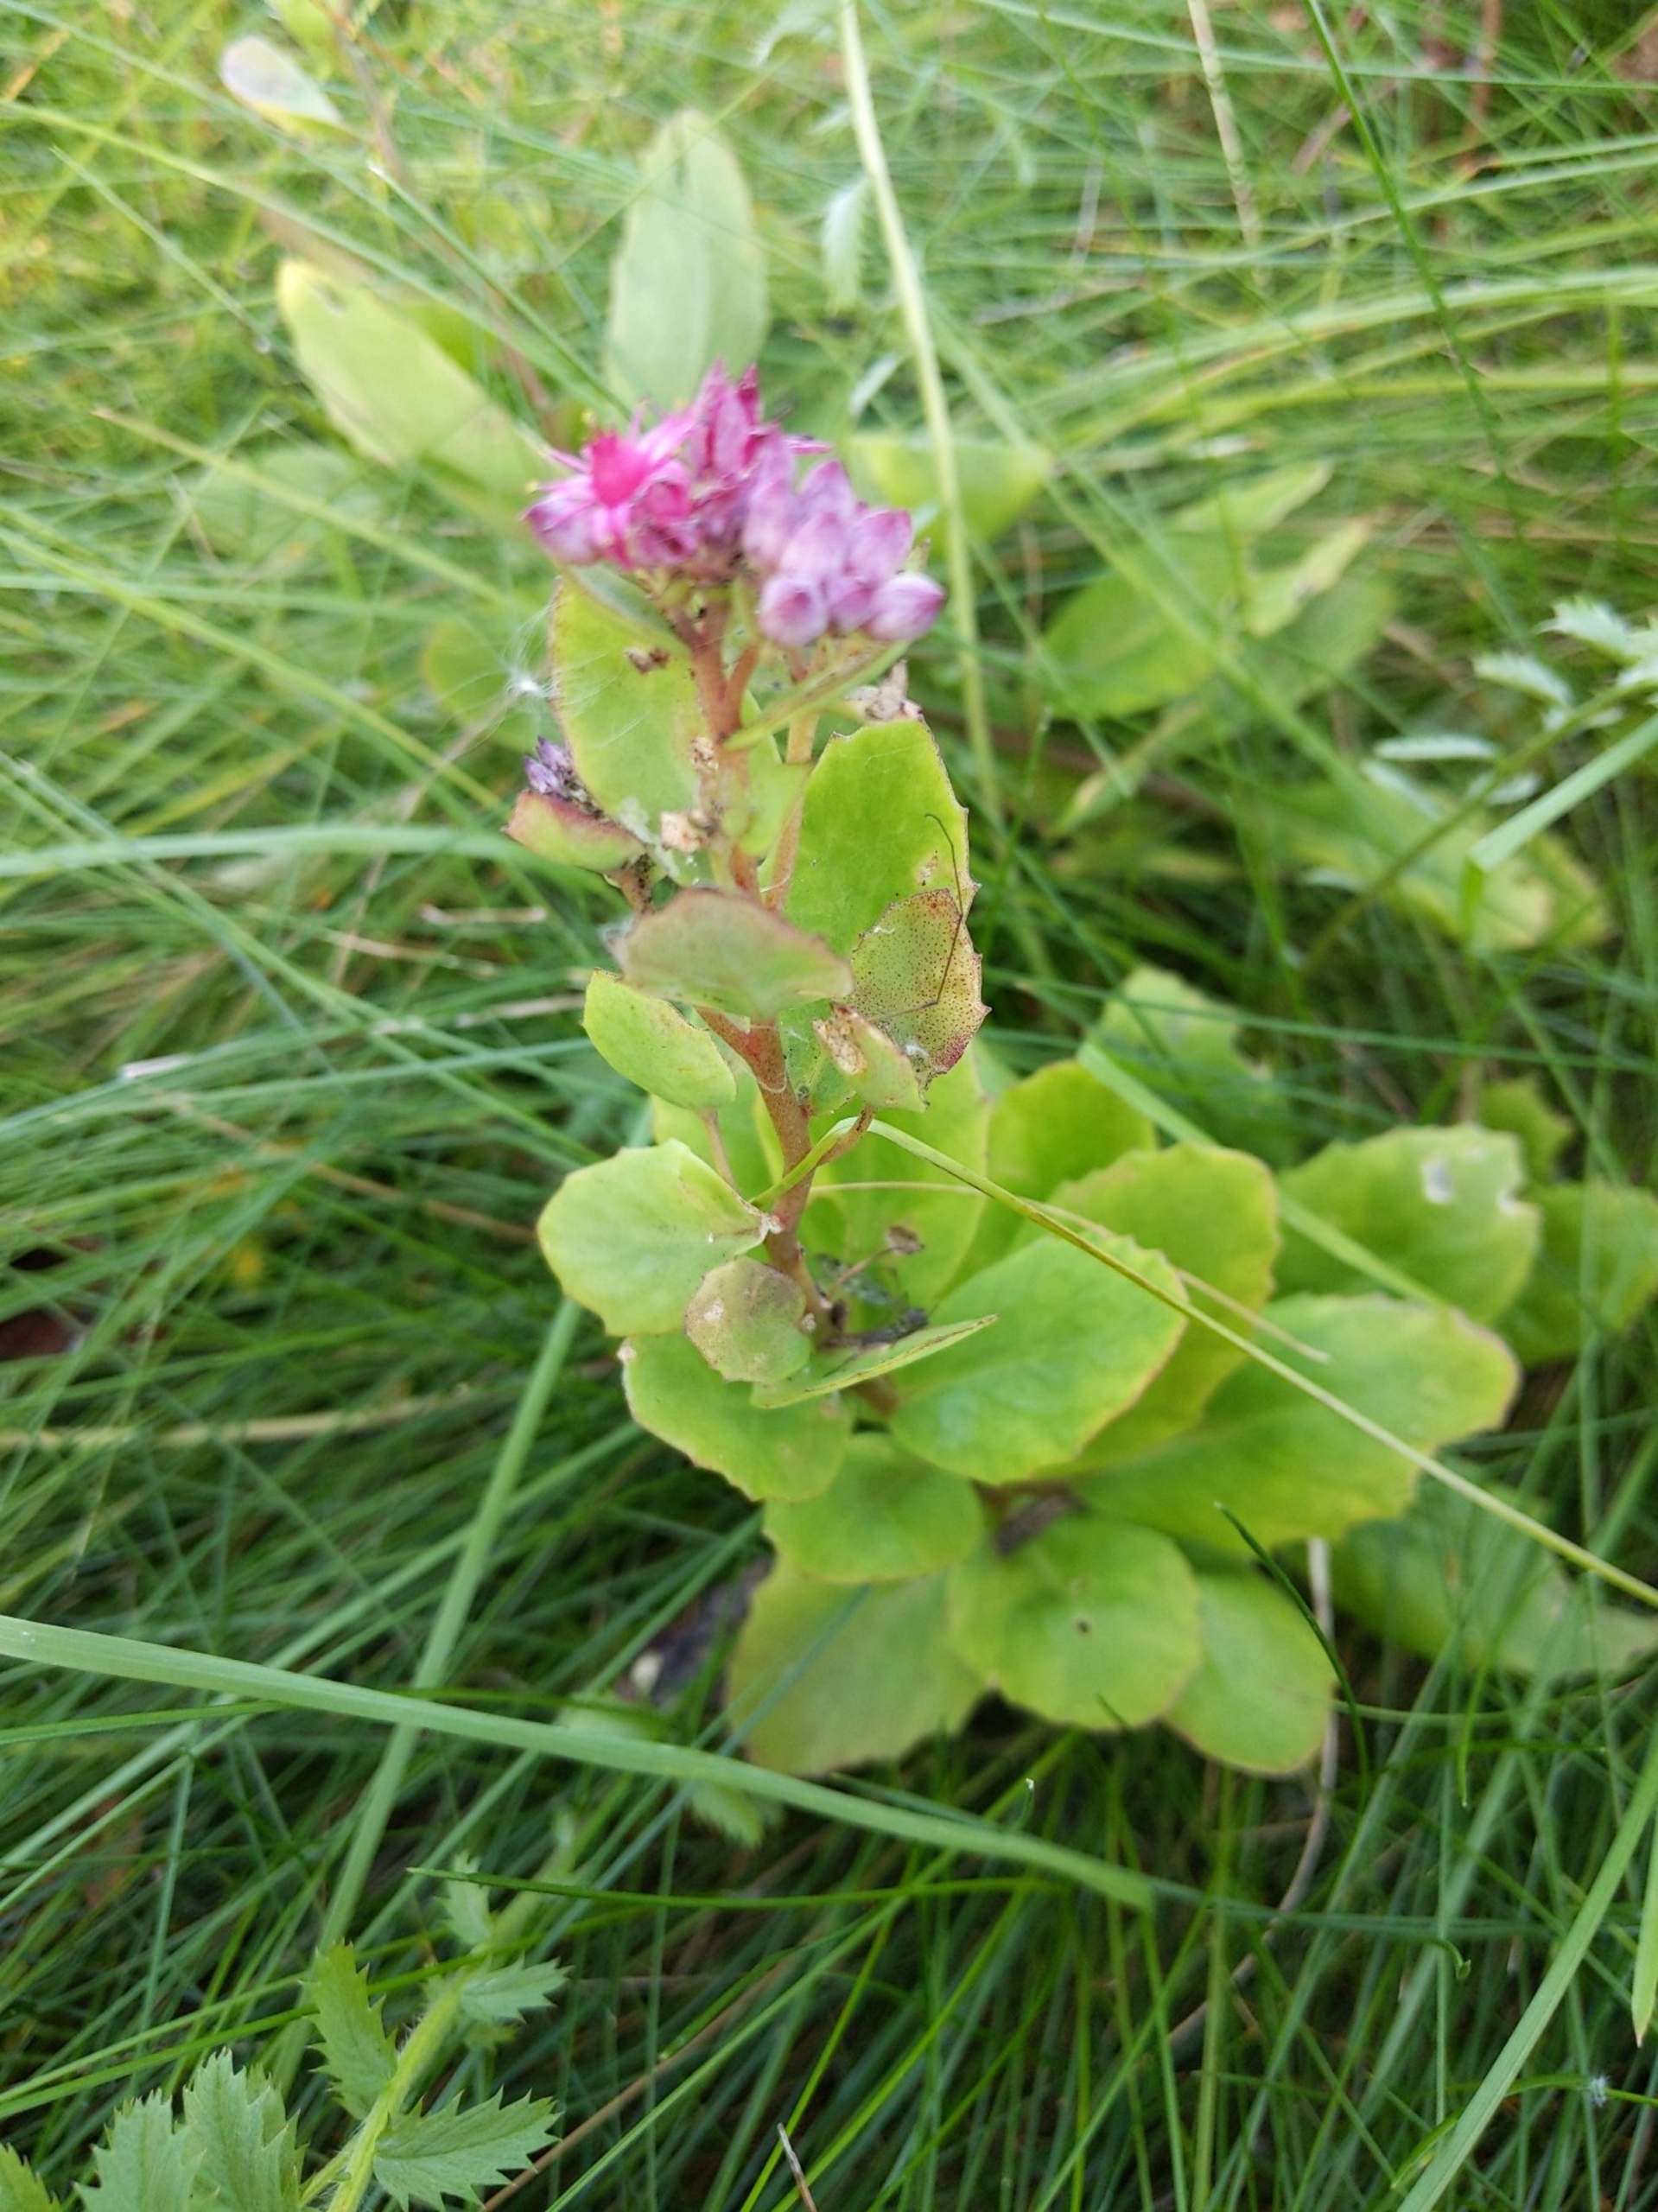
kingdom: Plantae
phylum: Tracheophyta
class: Magnoliopsida
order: Saxifragales
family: Crassulaceae
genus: Hylotelephium
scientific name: Hylotelephium telephium
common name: Rød sankthansurt
